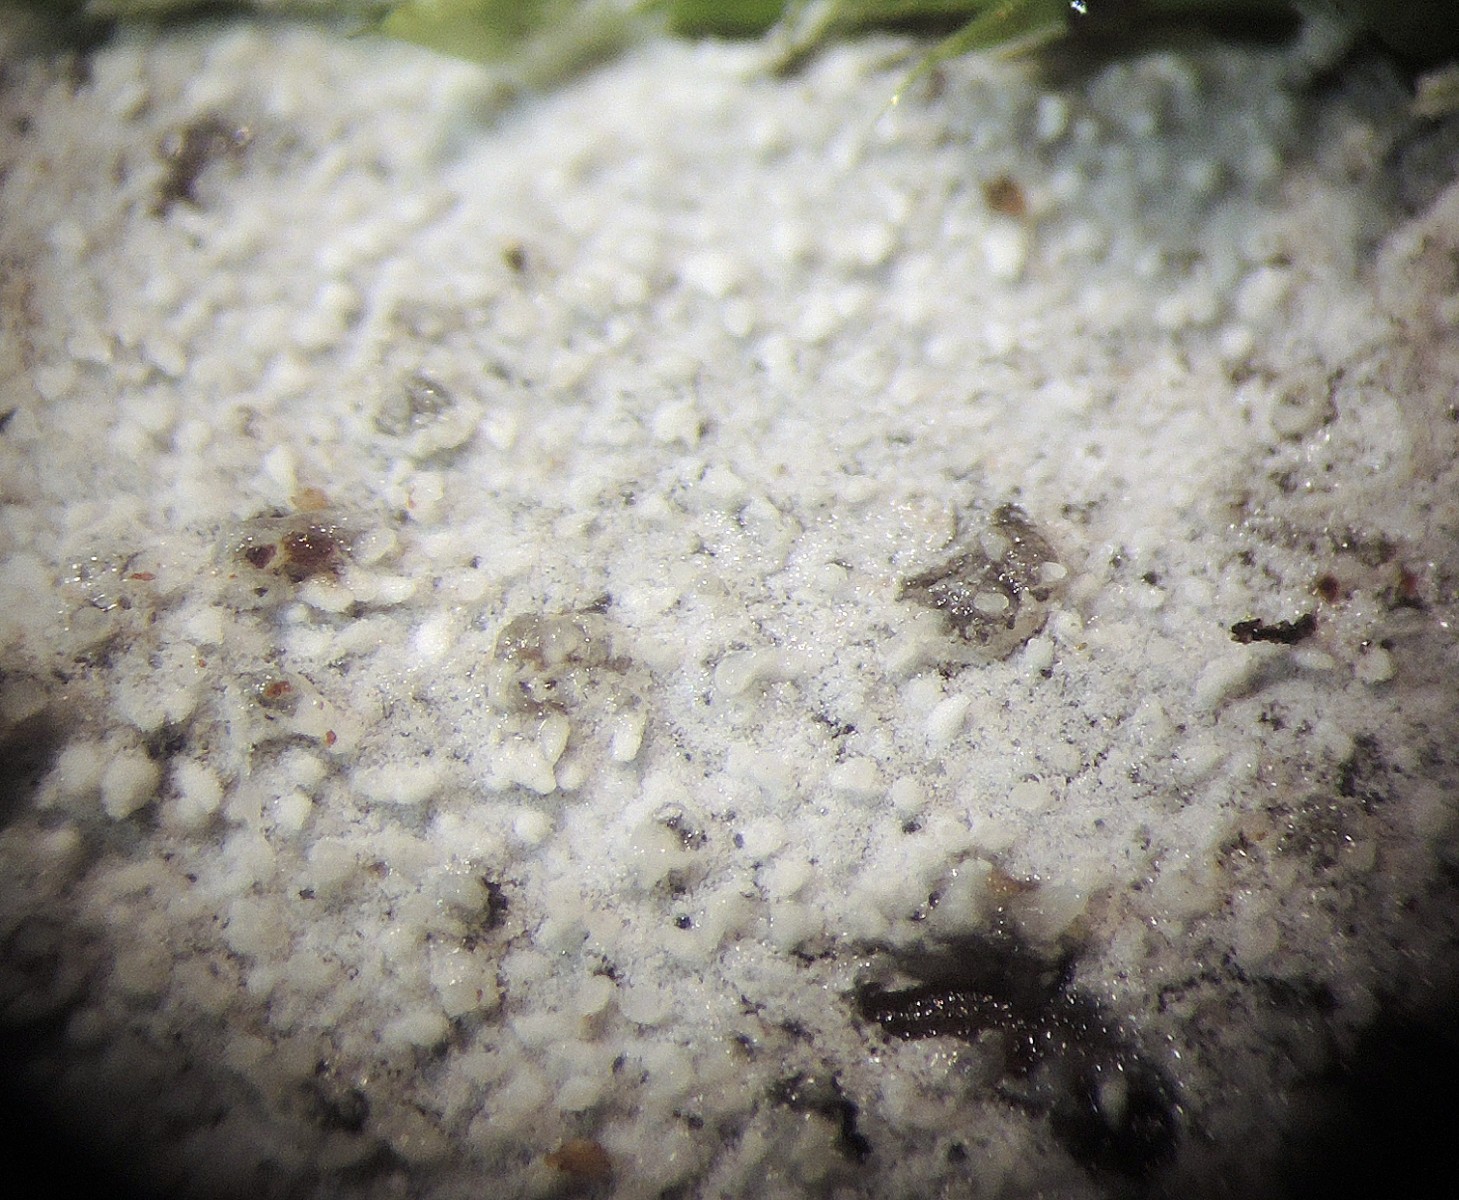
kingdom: Fungi
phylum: Basidiomycota
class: Agaricomycetes
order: Hymenochaetales
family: Schizoporaceae
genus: Xylodon
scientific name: Xylodon pruinosus
